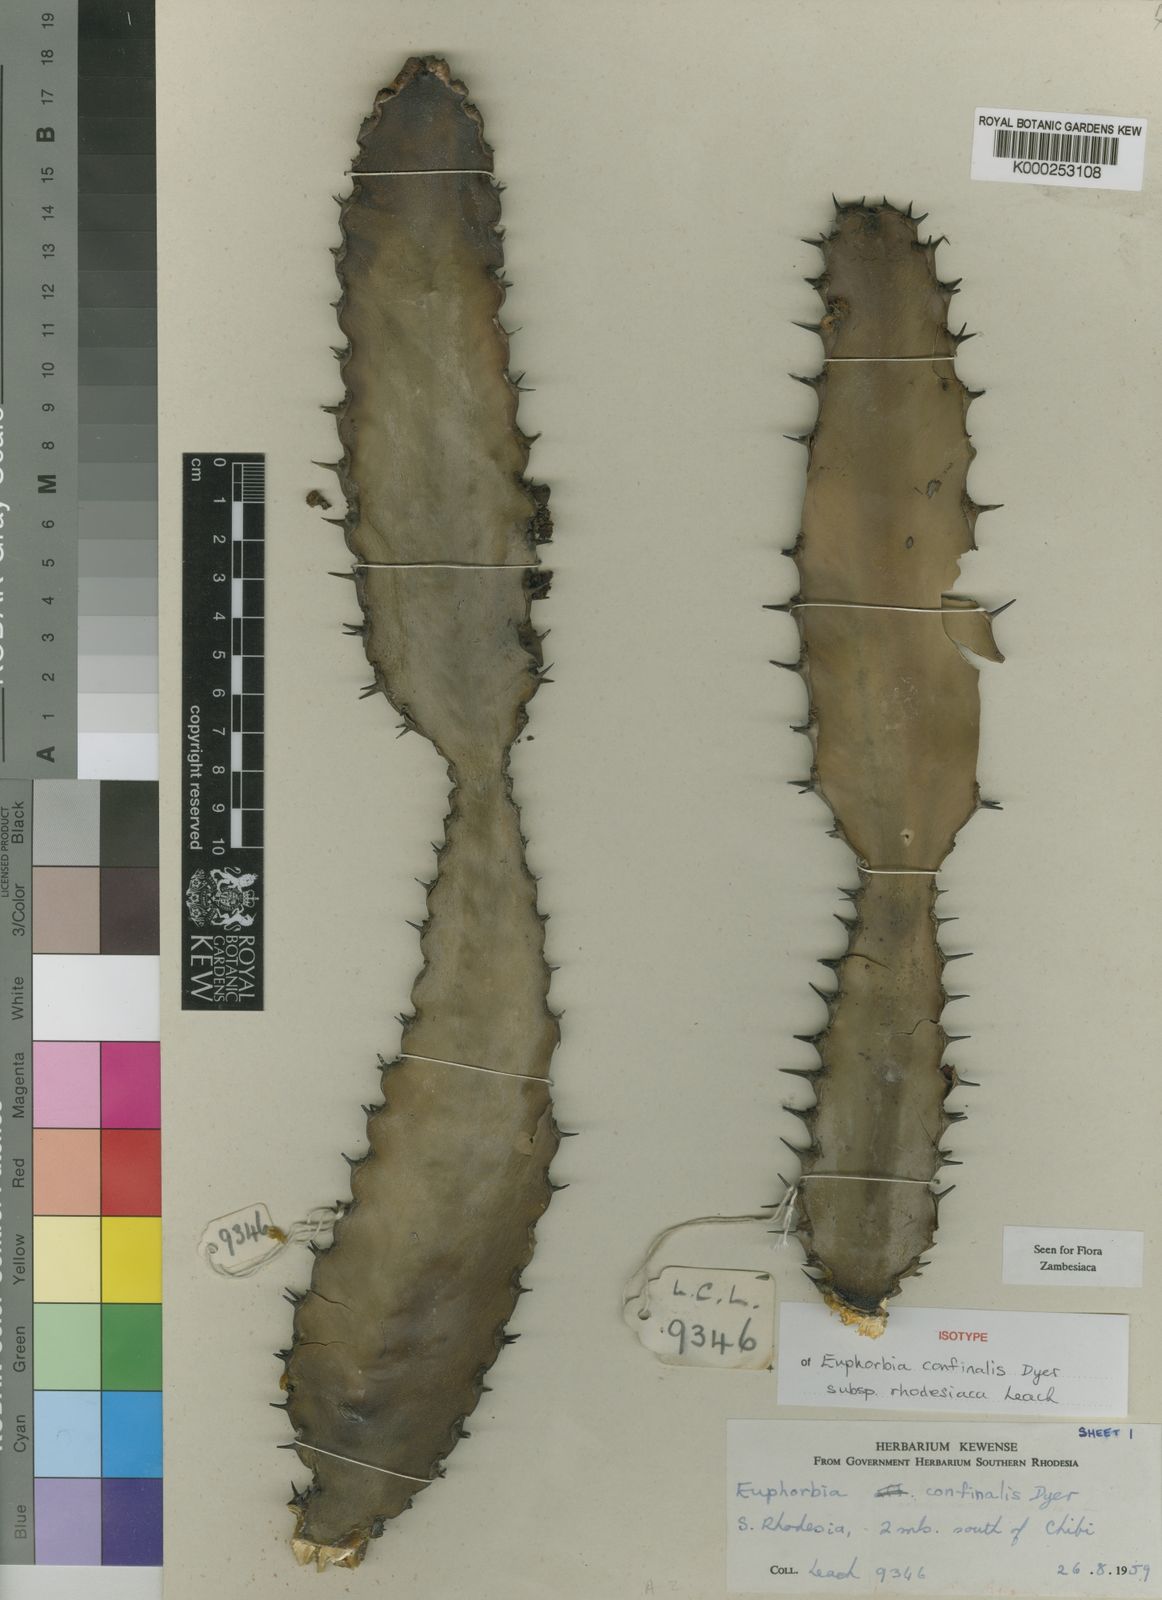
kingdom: Plantae
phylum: Tracheophyta
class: Magnoliopsida
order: Malpighiales
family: Euphorbiaceae
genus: Euphorbia
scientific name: Euphorbia confinalis
